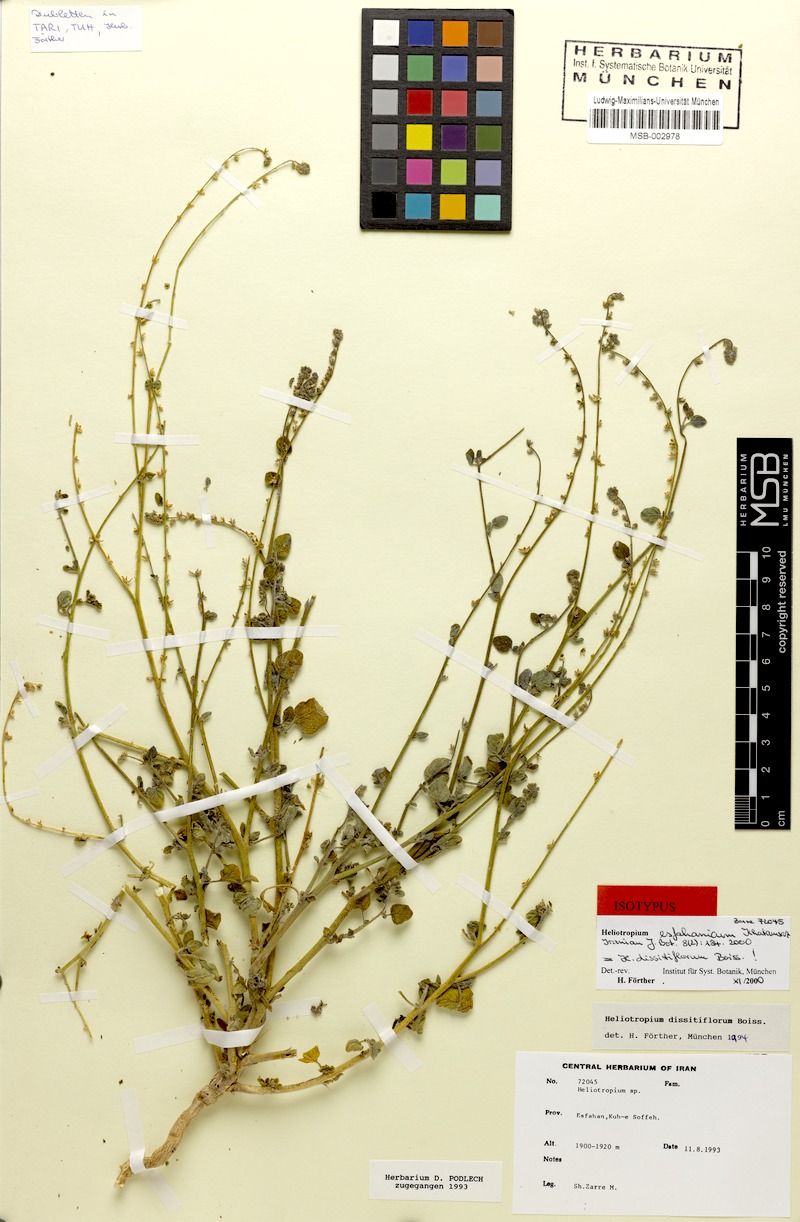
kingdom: Plantae
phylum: Tracheophyta
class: Magnoliopsida
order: Boraginales
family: Heliotropiaceae
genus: Heliotropium
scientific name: Heliotropium dissitiflorum
